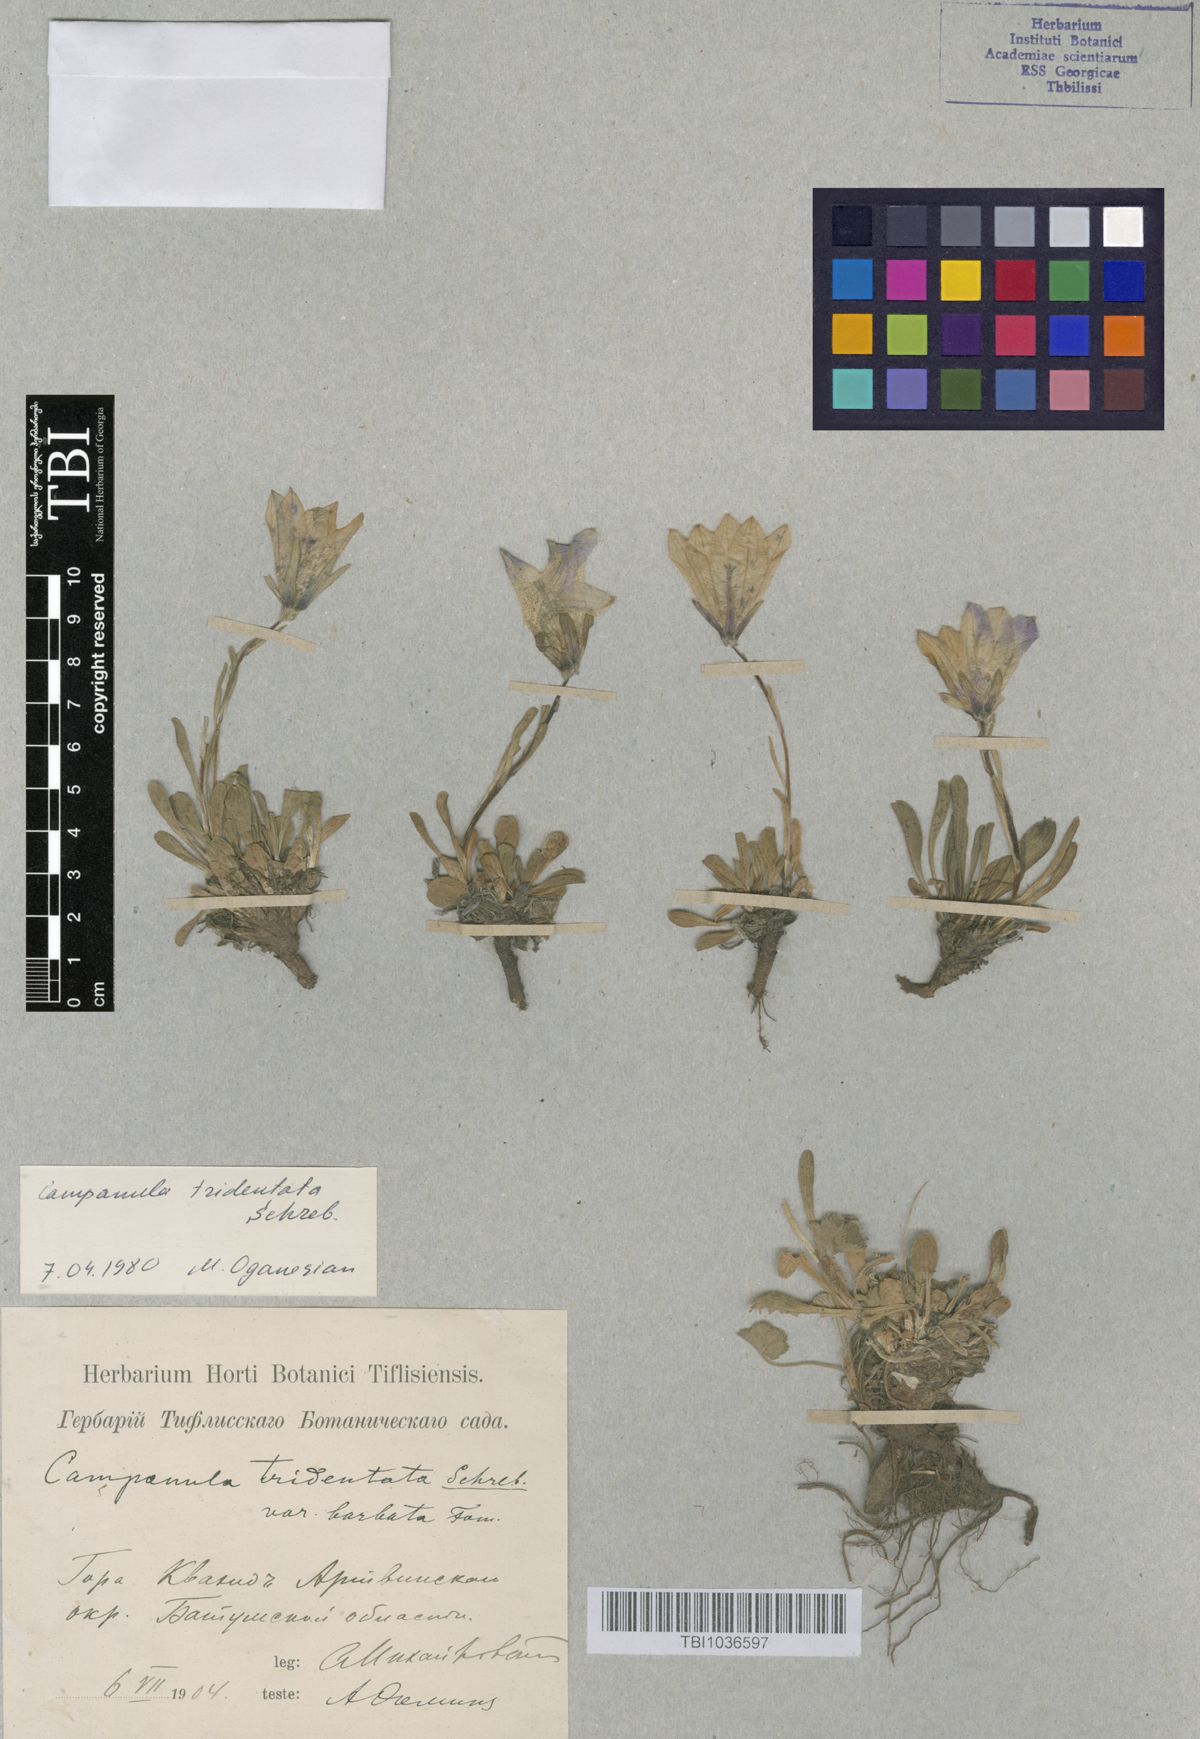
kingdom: Plantae
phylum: Tracheophyta
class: Magnoliopsida
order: Asterales
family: Campanulaceae
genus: Campanula
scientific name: Campanula tridentata
